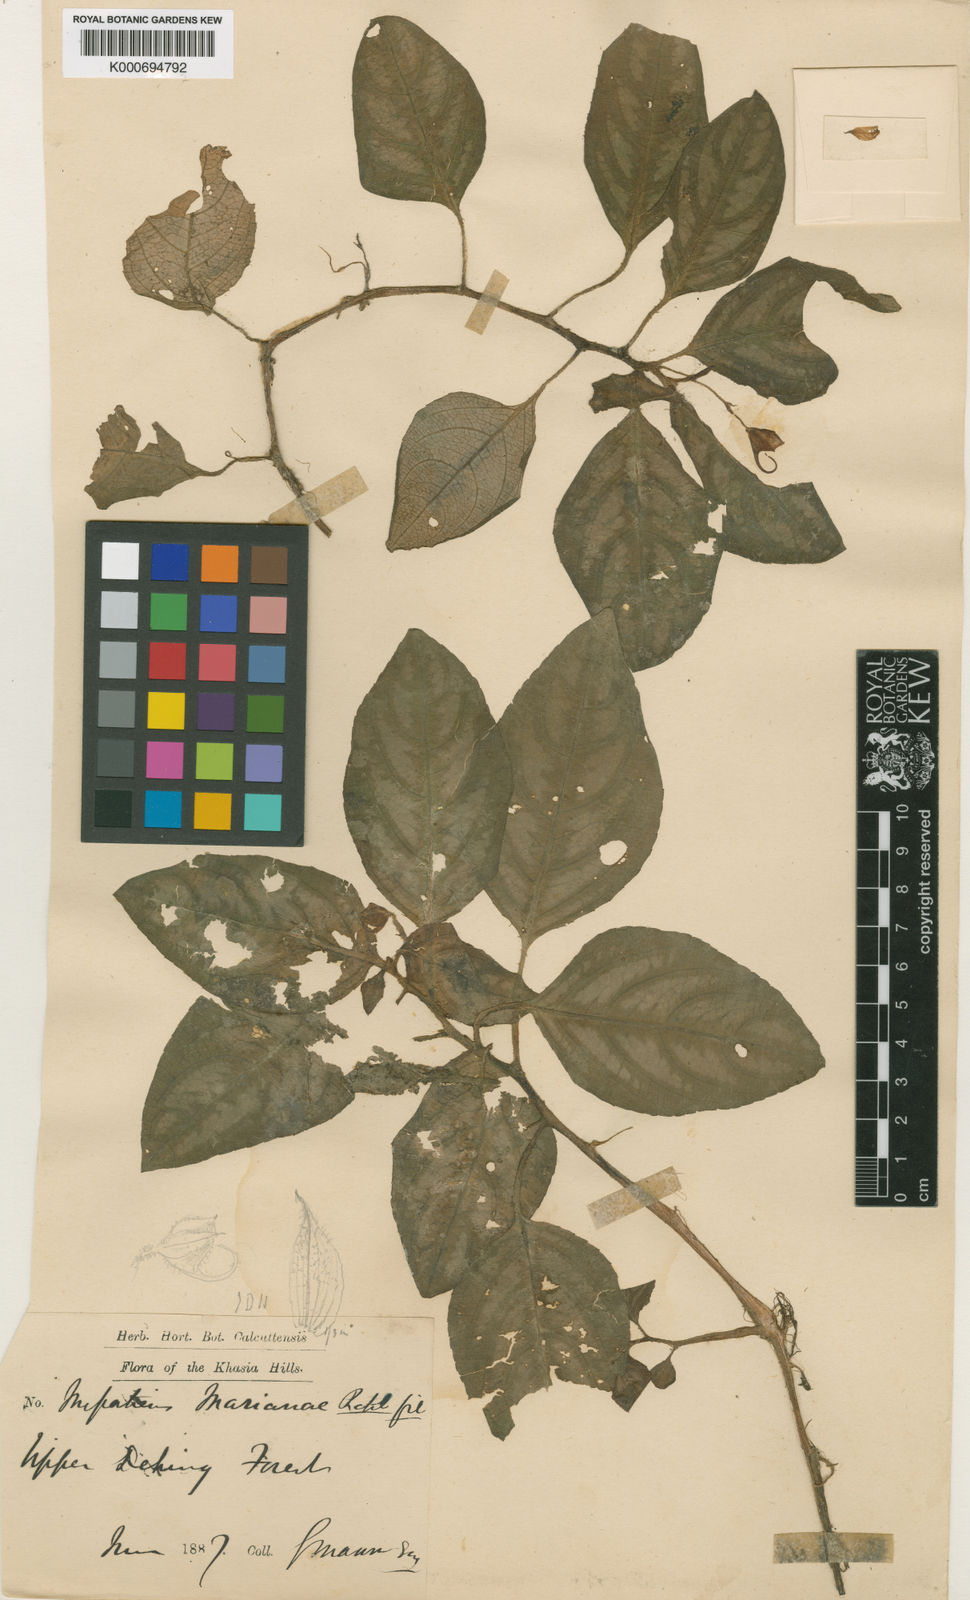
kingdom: Plantae
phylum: Tracheophyta
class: Magnoliopsida
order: Ericales
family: Balsaminaceae
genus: Impatiens
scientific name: Impatiens
